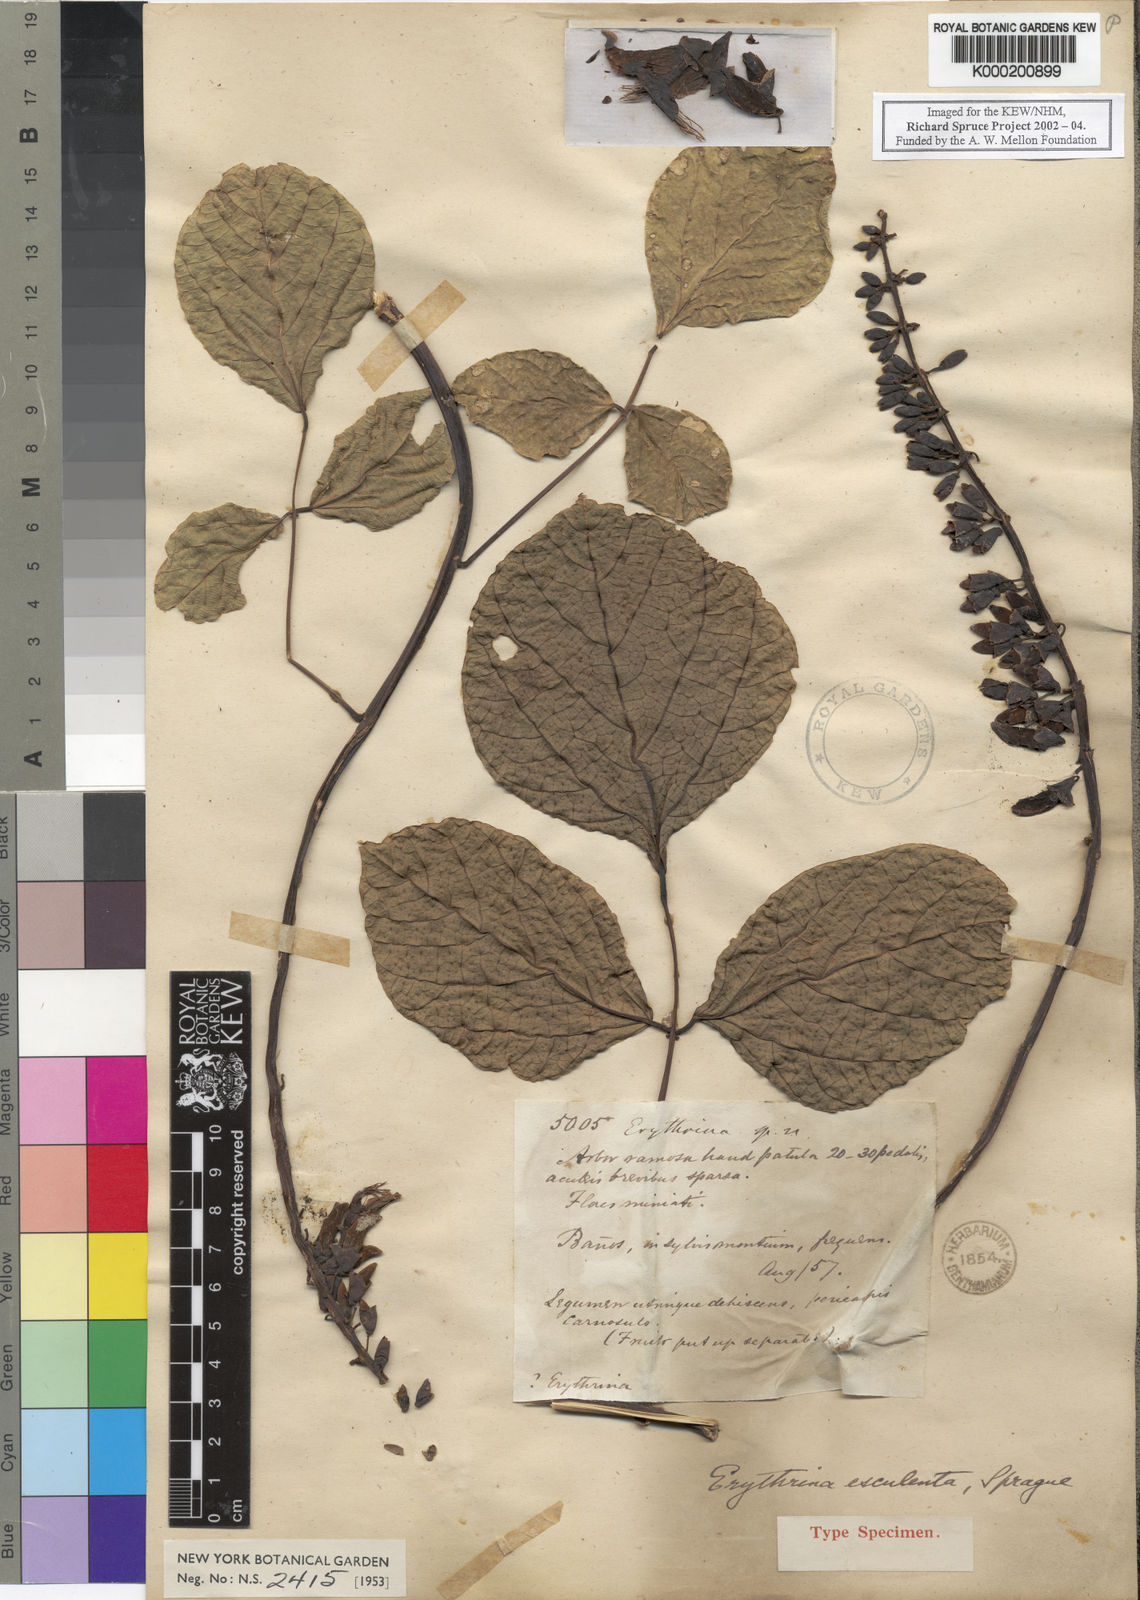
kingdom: Plantae
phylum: Tracheophyta
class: Magnoliopsida
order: Fabales
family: Fabaceae
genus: Erythrina
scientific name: Erythrina edulis
